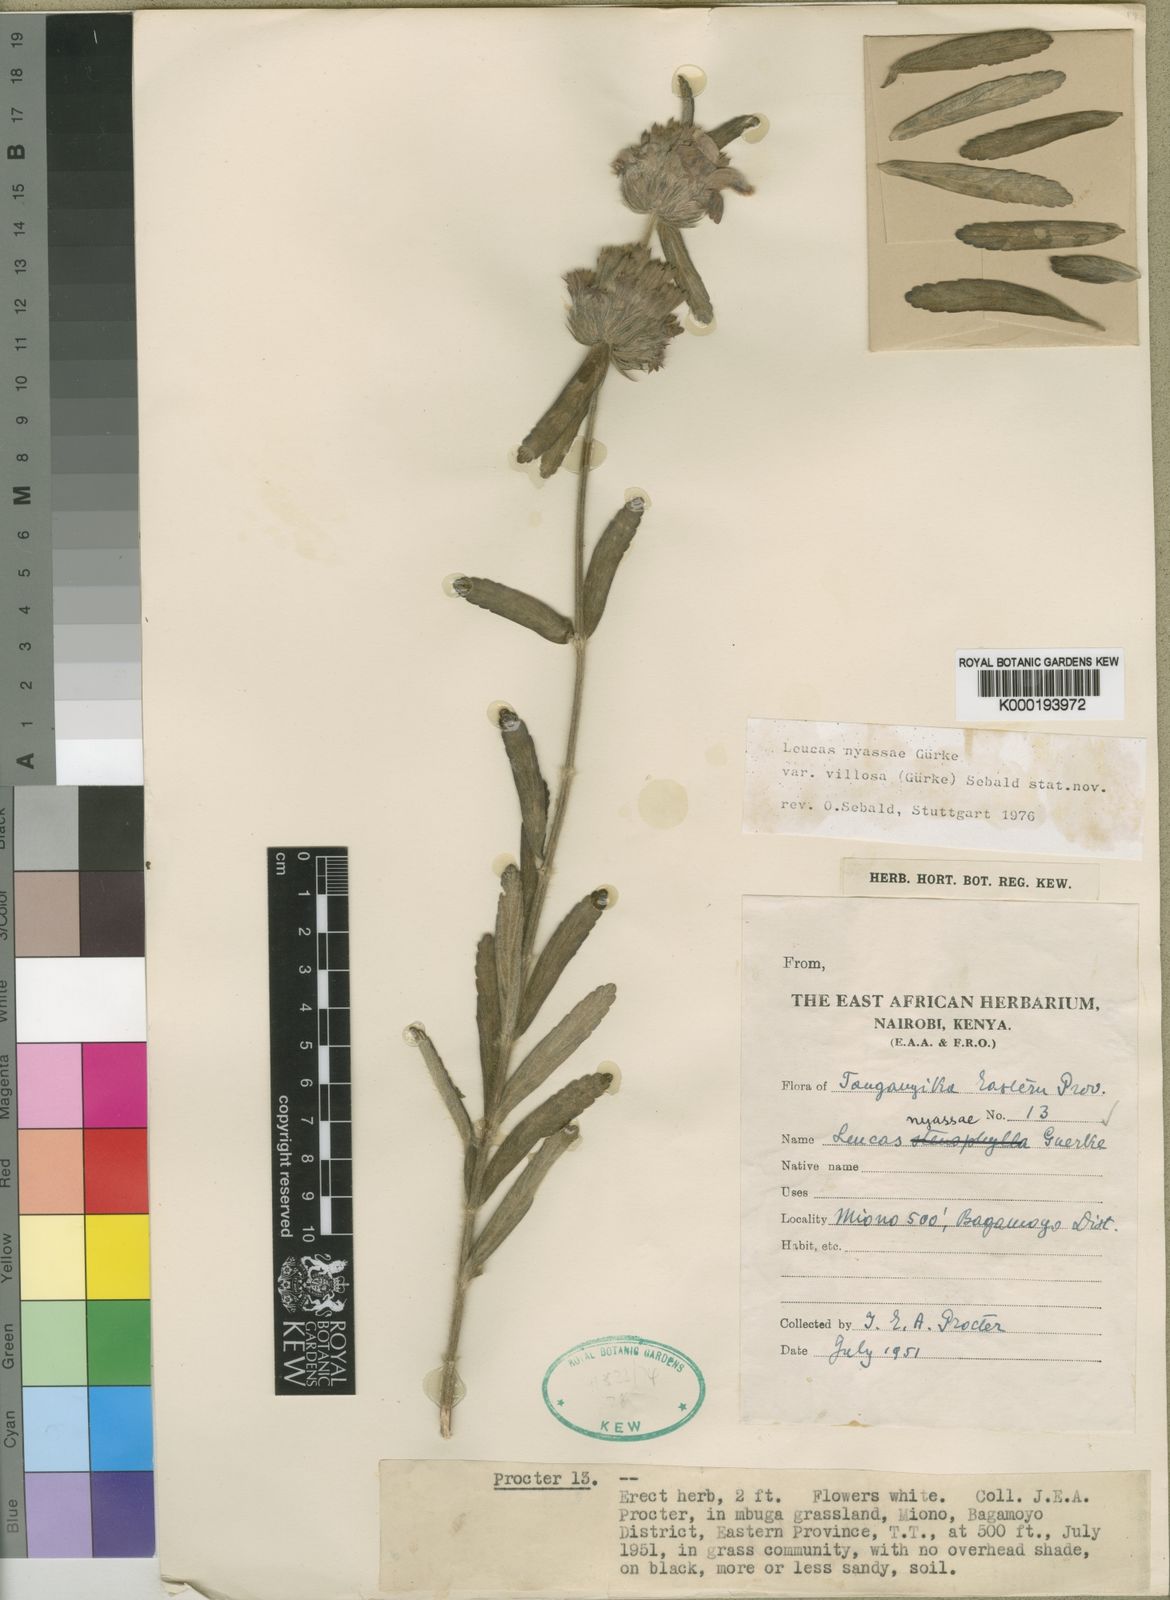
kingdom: Plantae
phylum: Tracheophyta
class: Magnoliopsida
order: Lamiales
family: Lamiaceae
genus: Leucas
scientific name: Leucas
